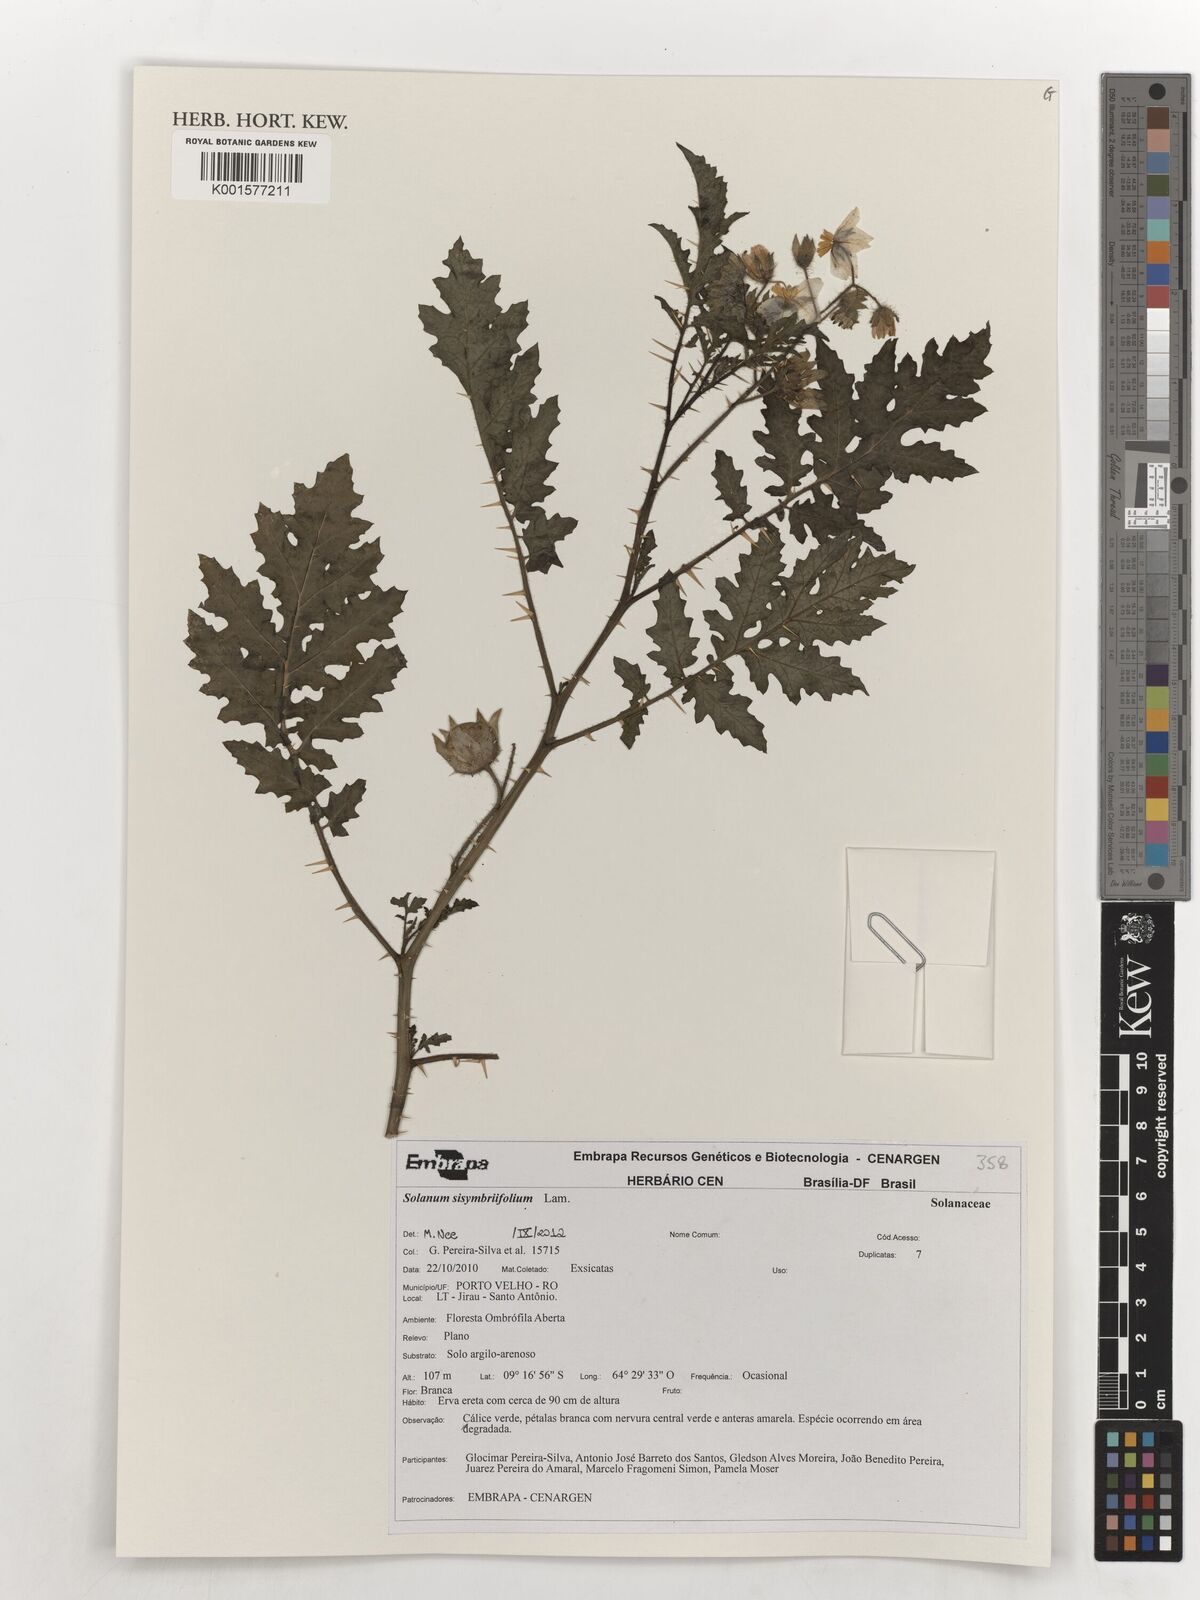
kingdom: Plantae
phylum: Tracheophyta
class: Magnoliopsida
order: Solanales
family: Solanaceae
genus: Solanum
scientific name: Solanum sisymbriifolium
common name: Red buffalo-bur
